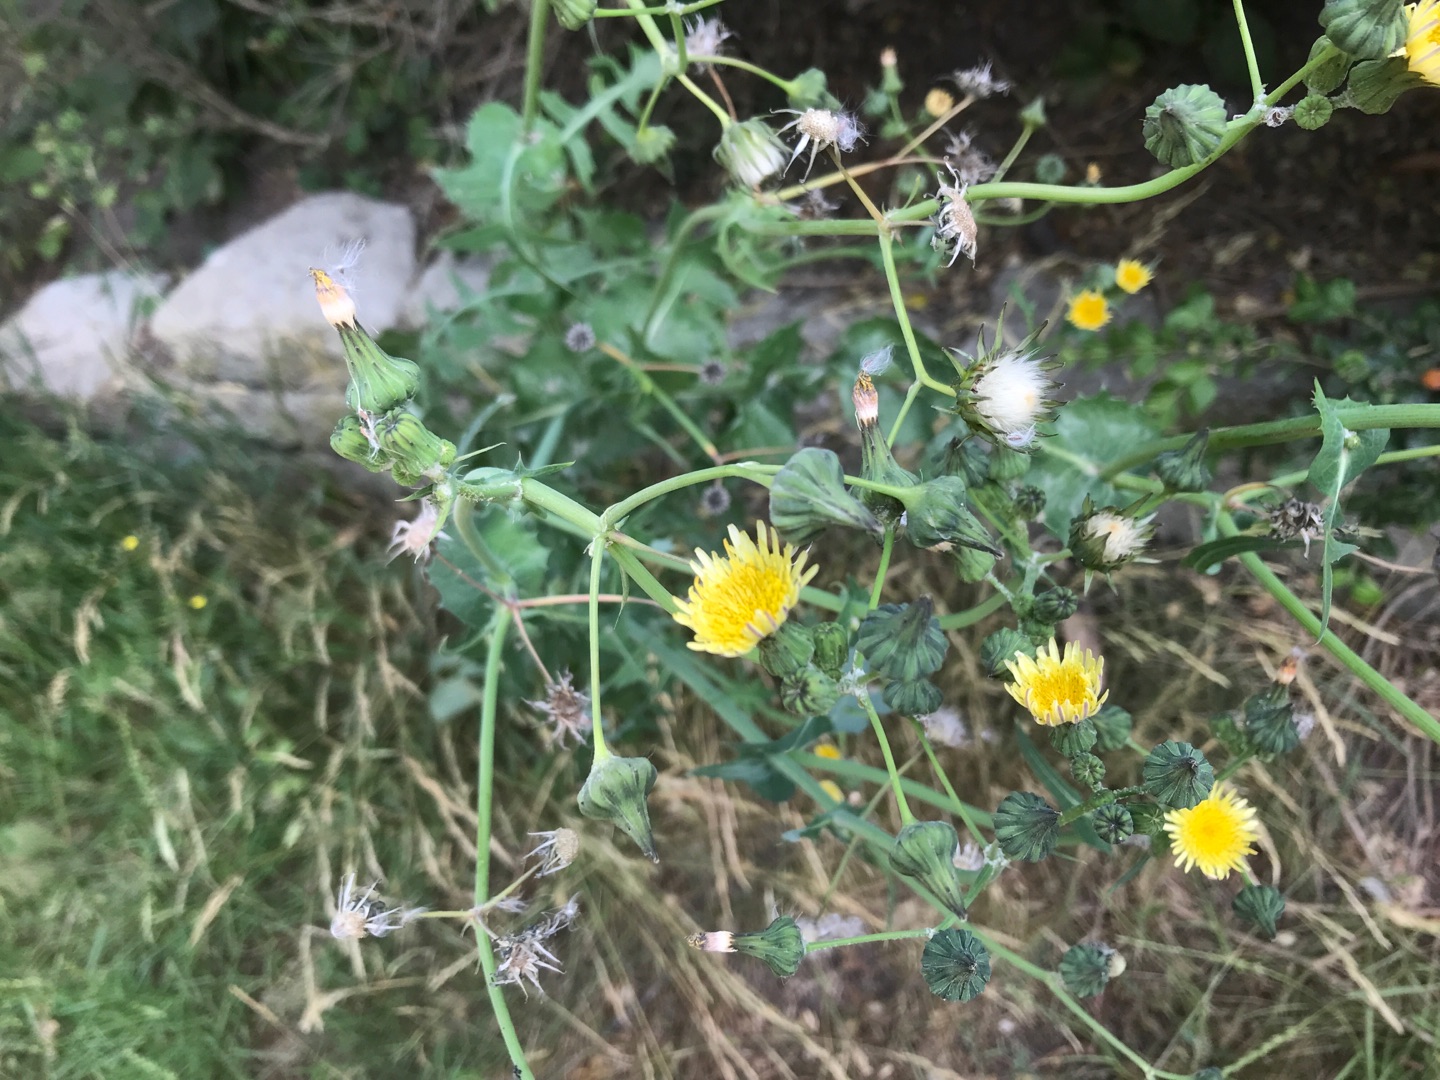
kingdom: Plantae
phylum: Tracheophyta
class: Magnoliopsida
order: Asterales
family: Asteraceae
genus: Sonchus
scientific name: Sonchus oleraceus
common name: Almindelig svinemælk
